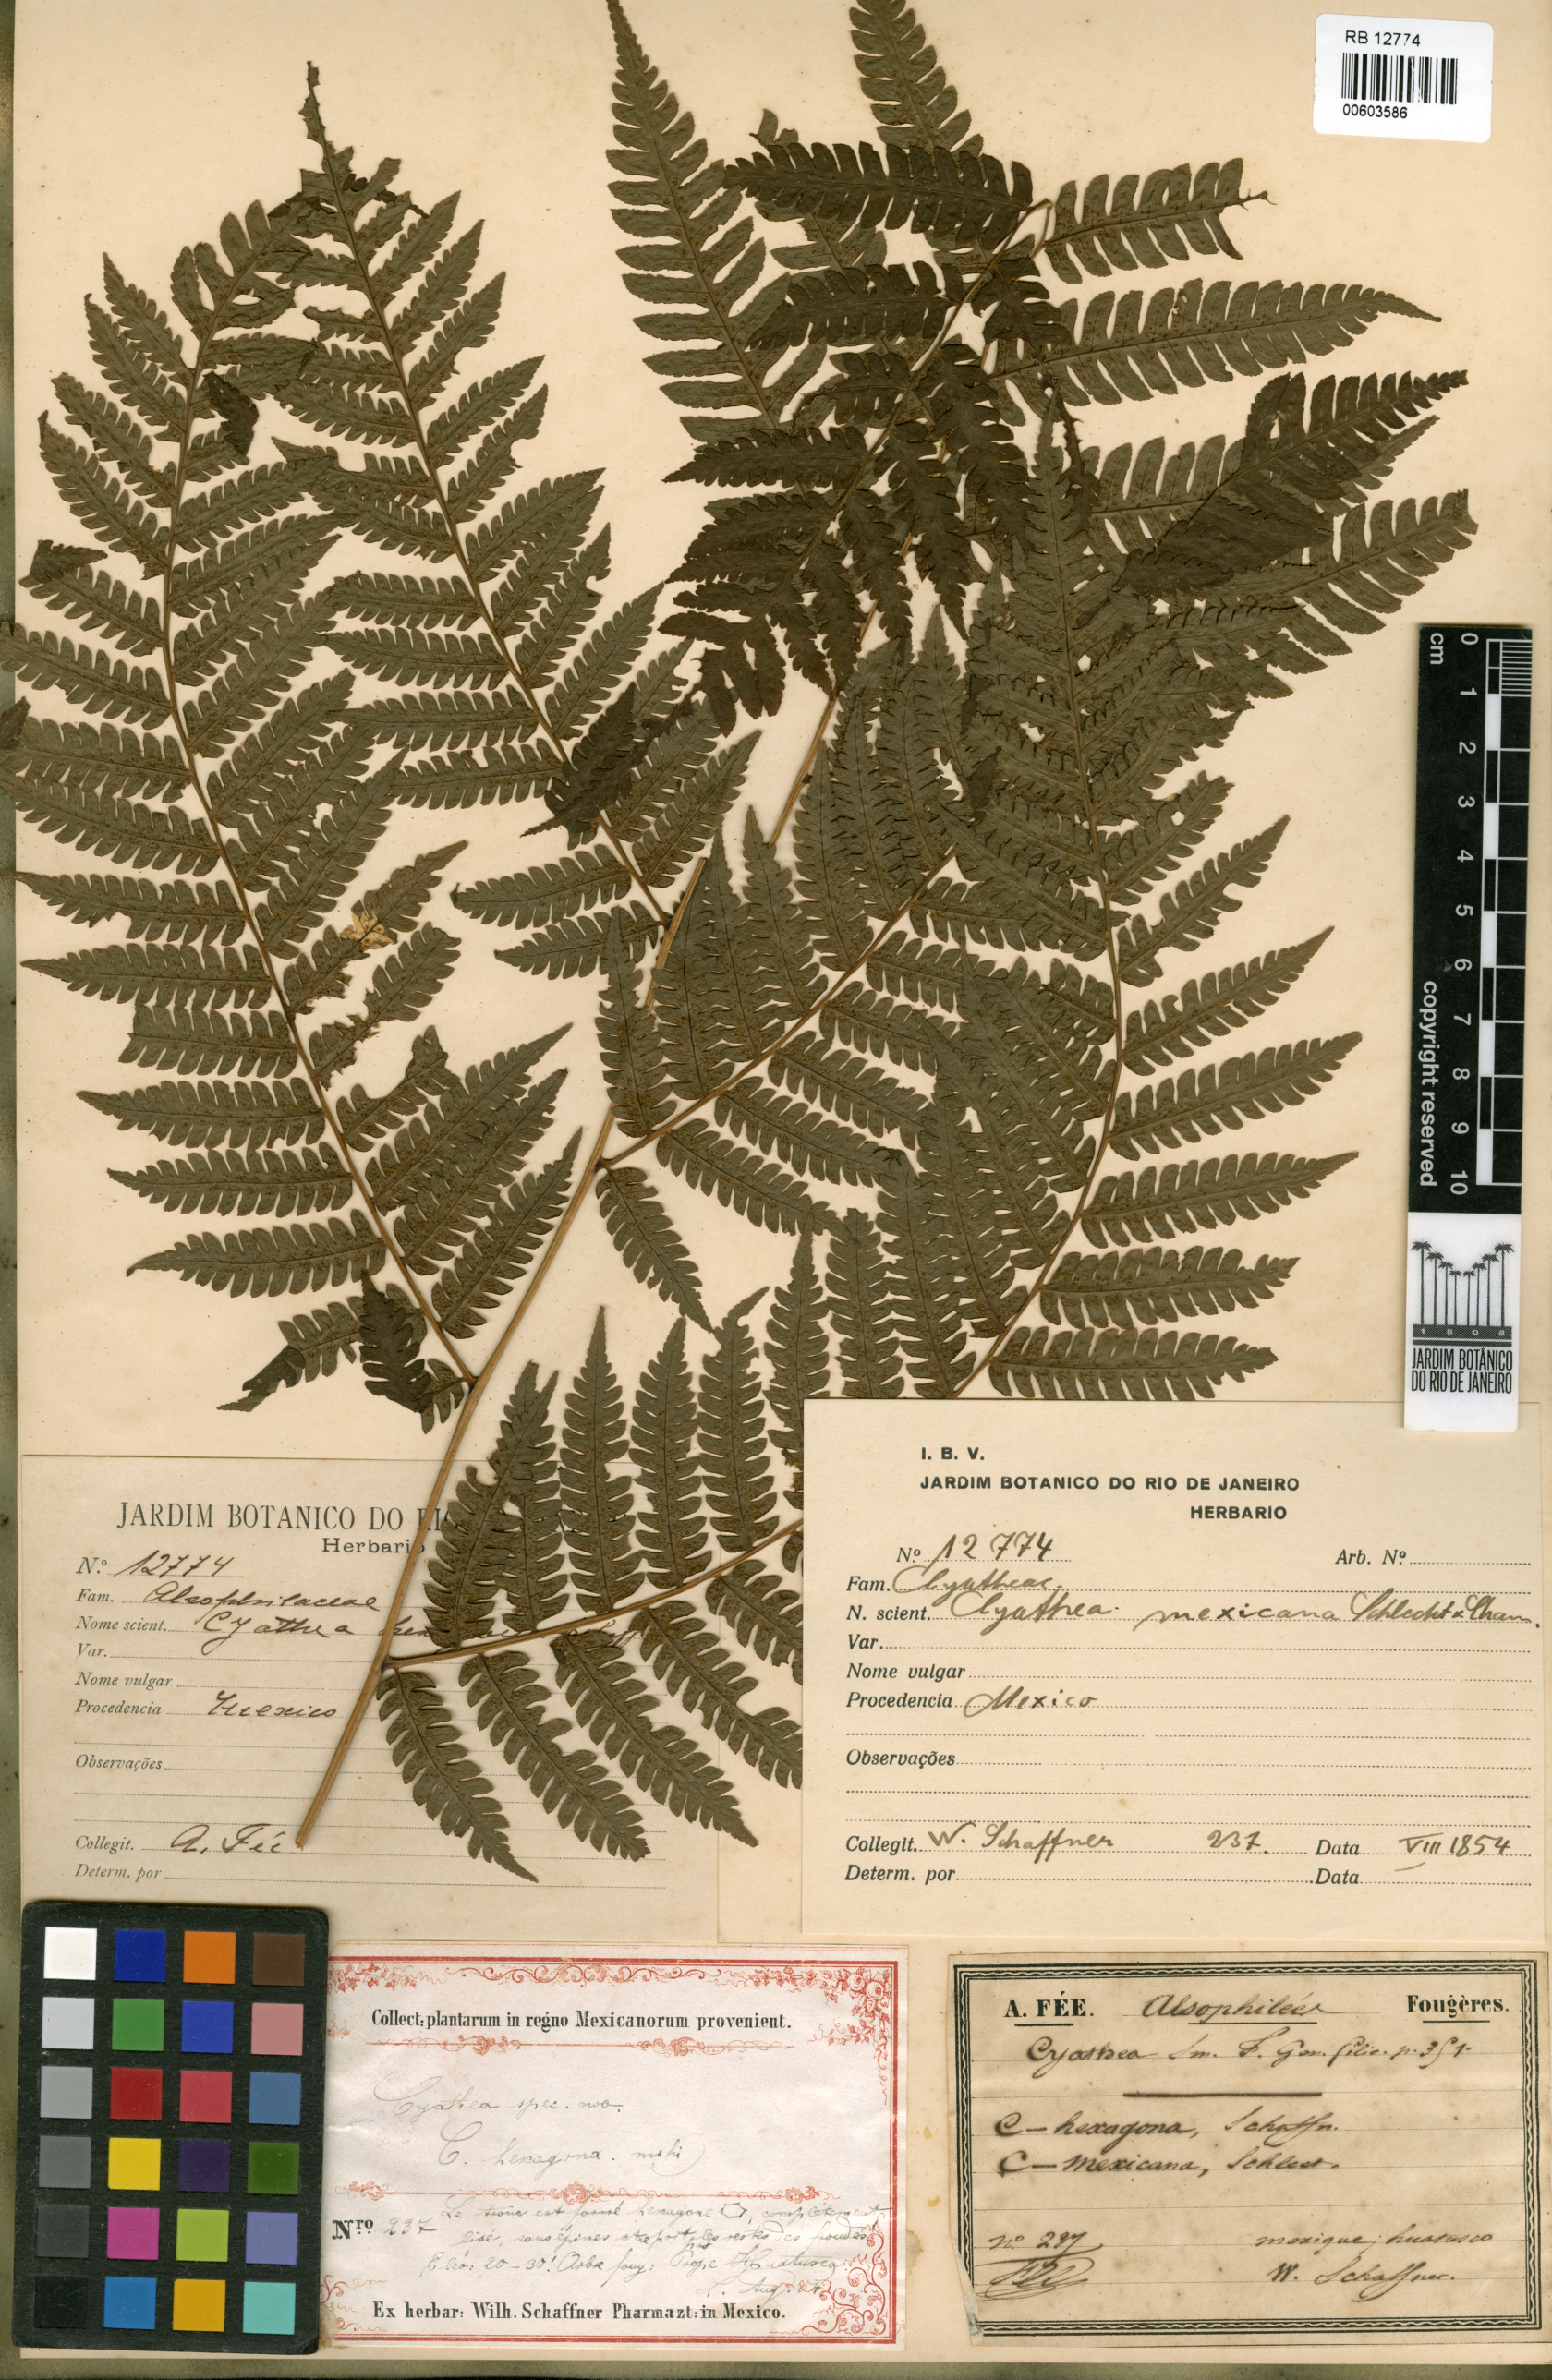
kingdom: Plantae
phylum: Tracheophyta
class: Polypodiopsida
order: Cyatheales
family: Cyatheaceae
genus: Alsophila
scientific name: Alsophila firma
